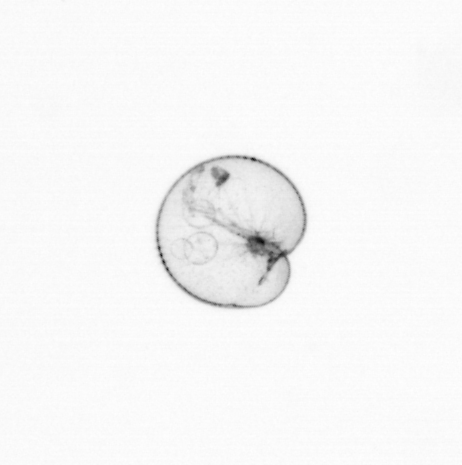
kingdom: Chromista
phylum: Myzozoa
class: Dinophyceae
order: Noctilucales
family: Noctilucaceae
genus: Noctiluca
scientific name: Noctiluca scintillans
